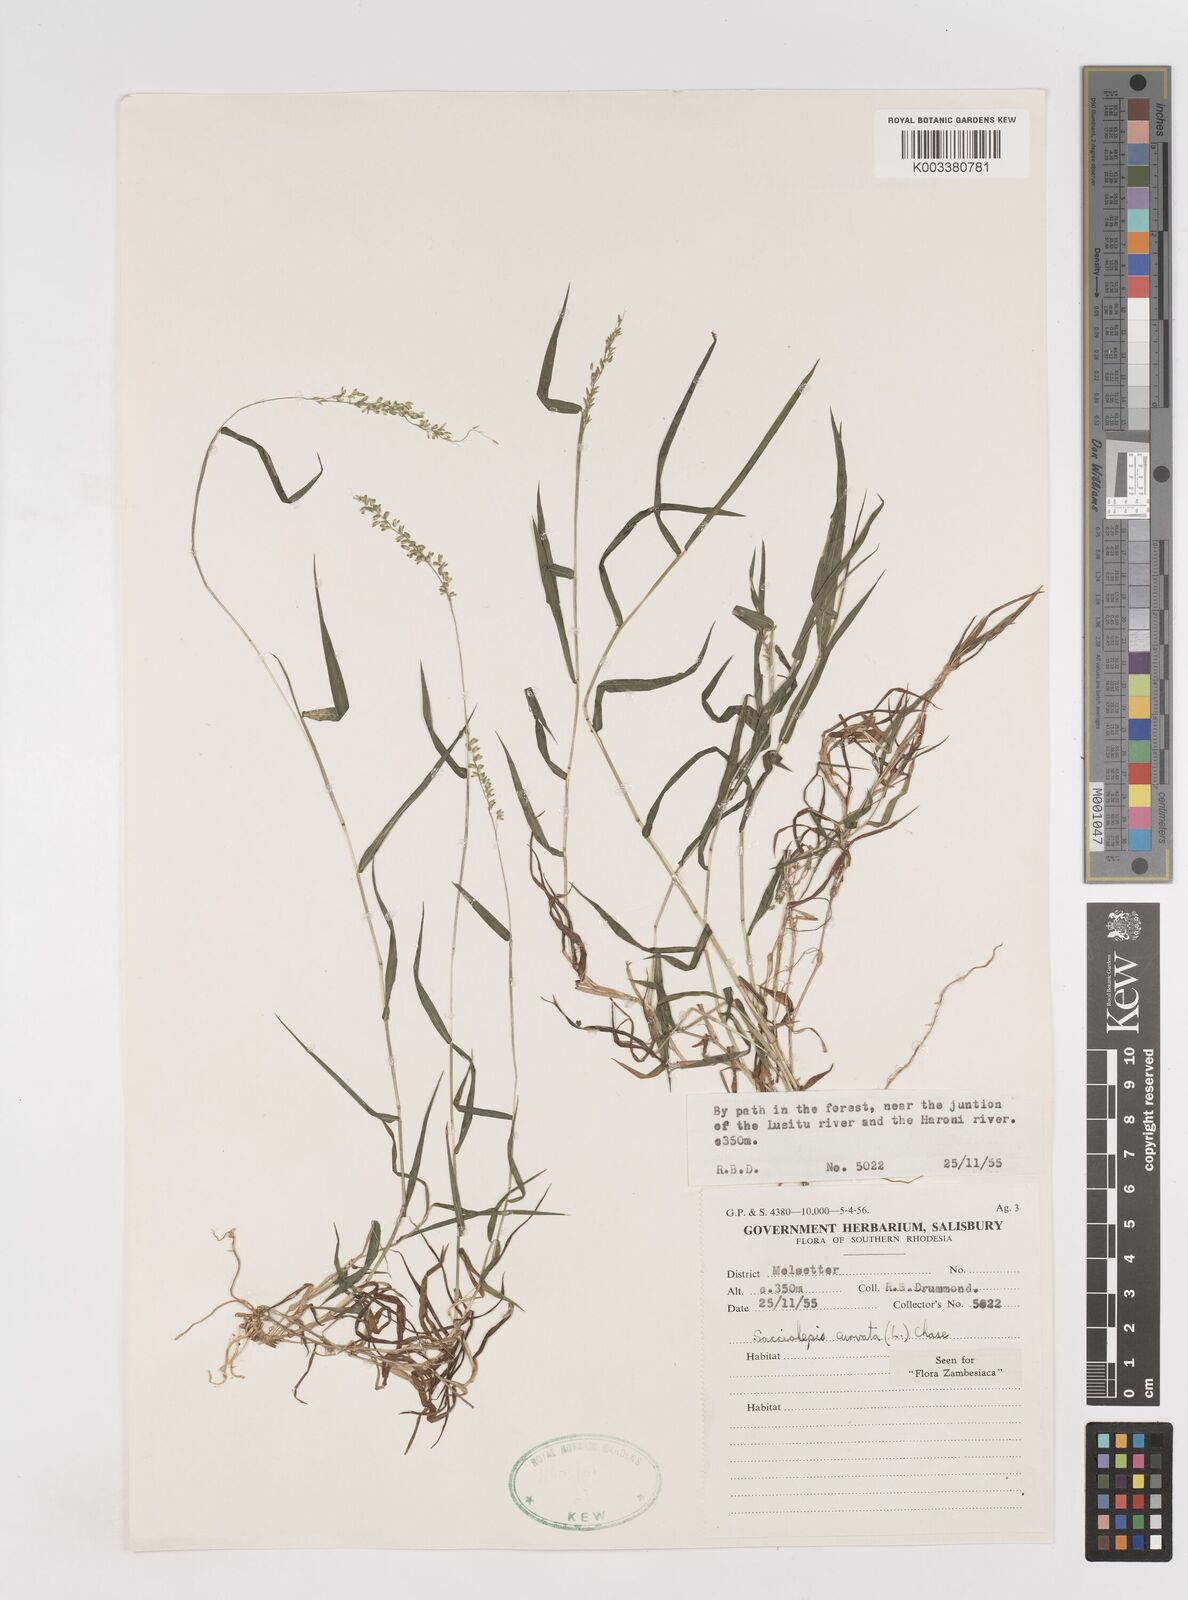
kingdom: Plantae
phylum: Tracheophyta
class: Liliopsida
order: Poales
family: Poaceae
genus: Sacciolepis
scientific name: Sacciolepis curvata
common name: Forest hood grass
